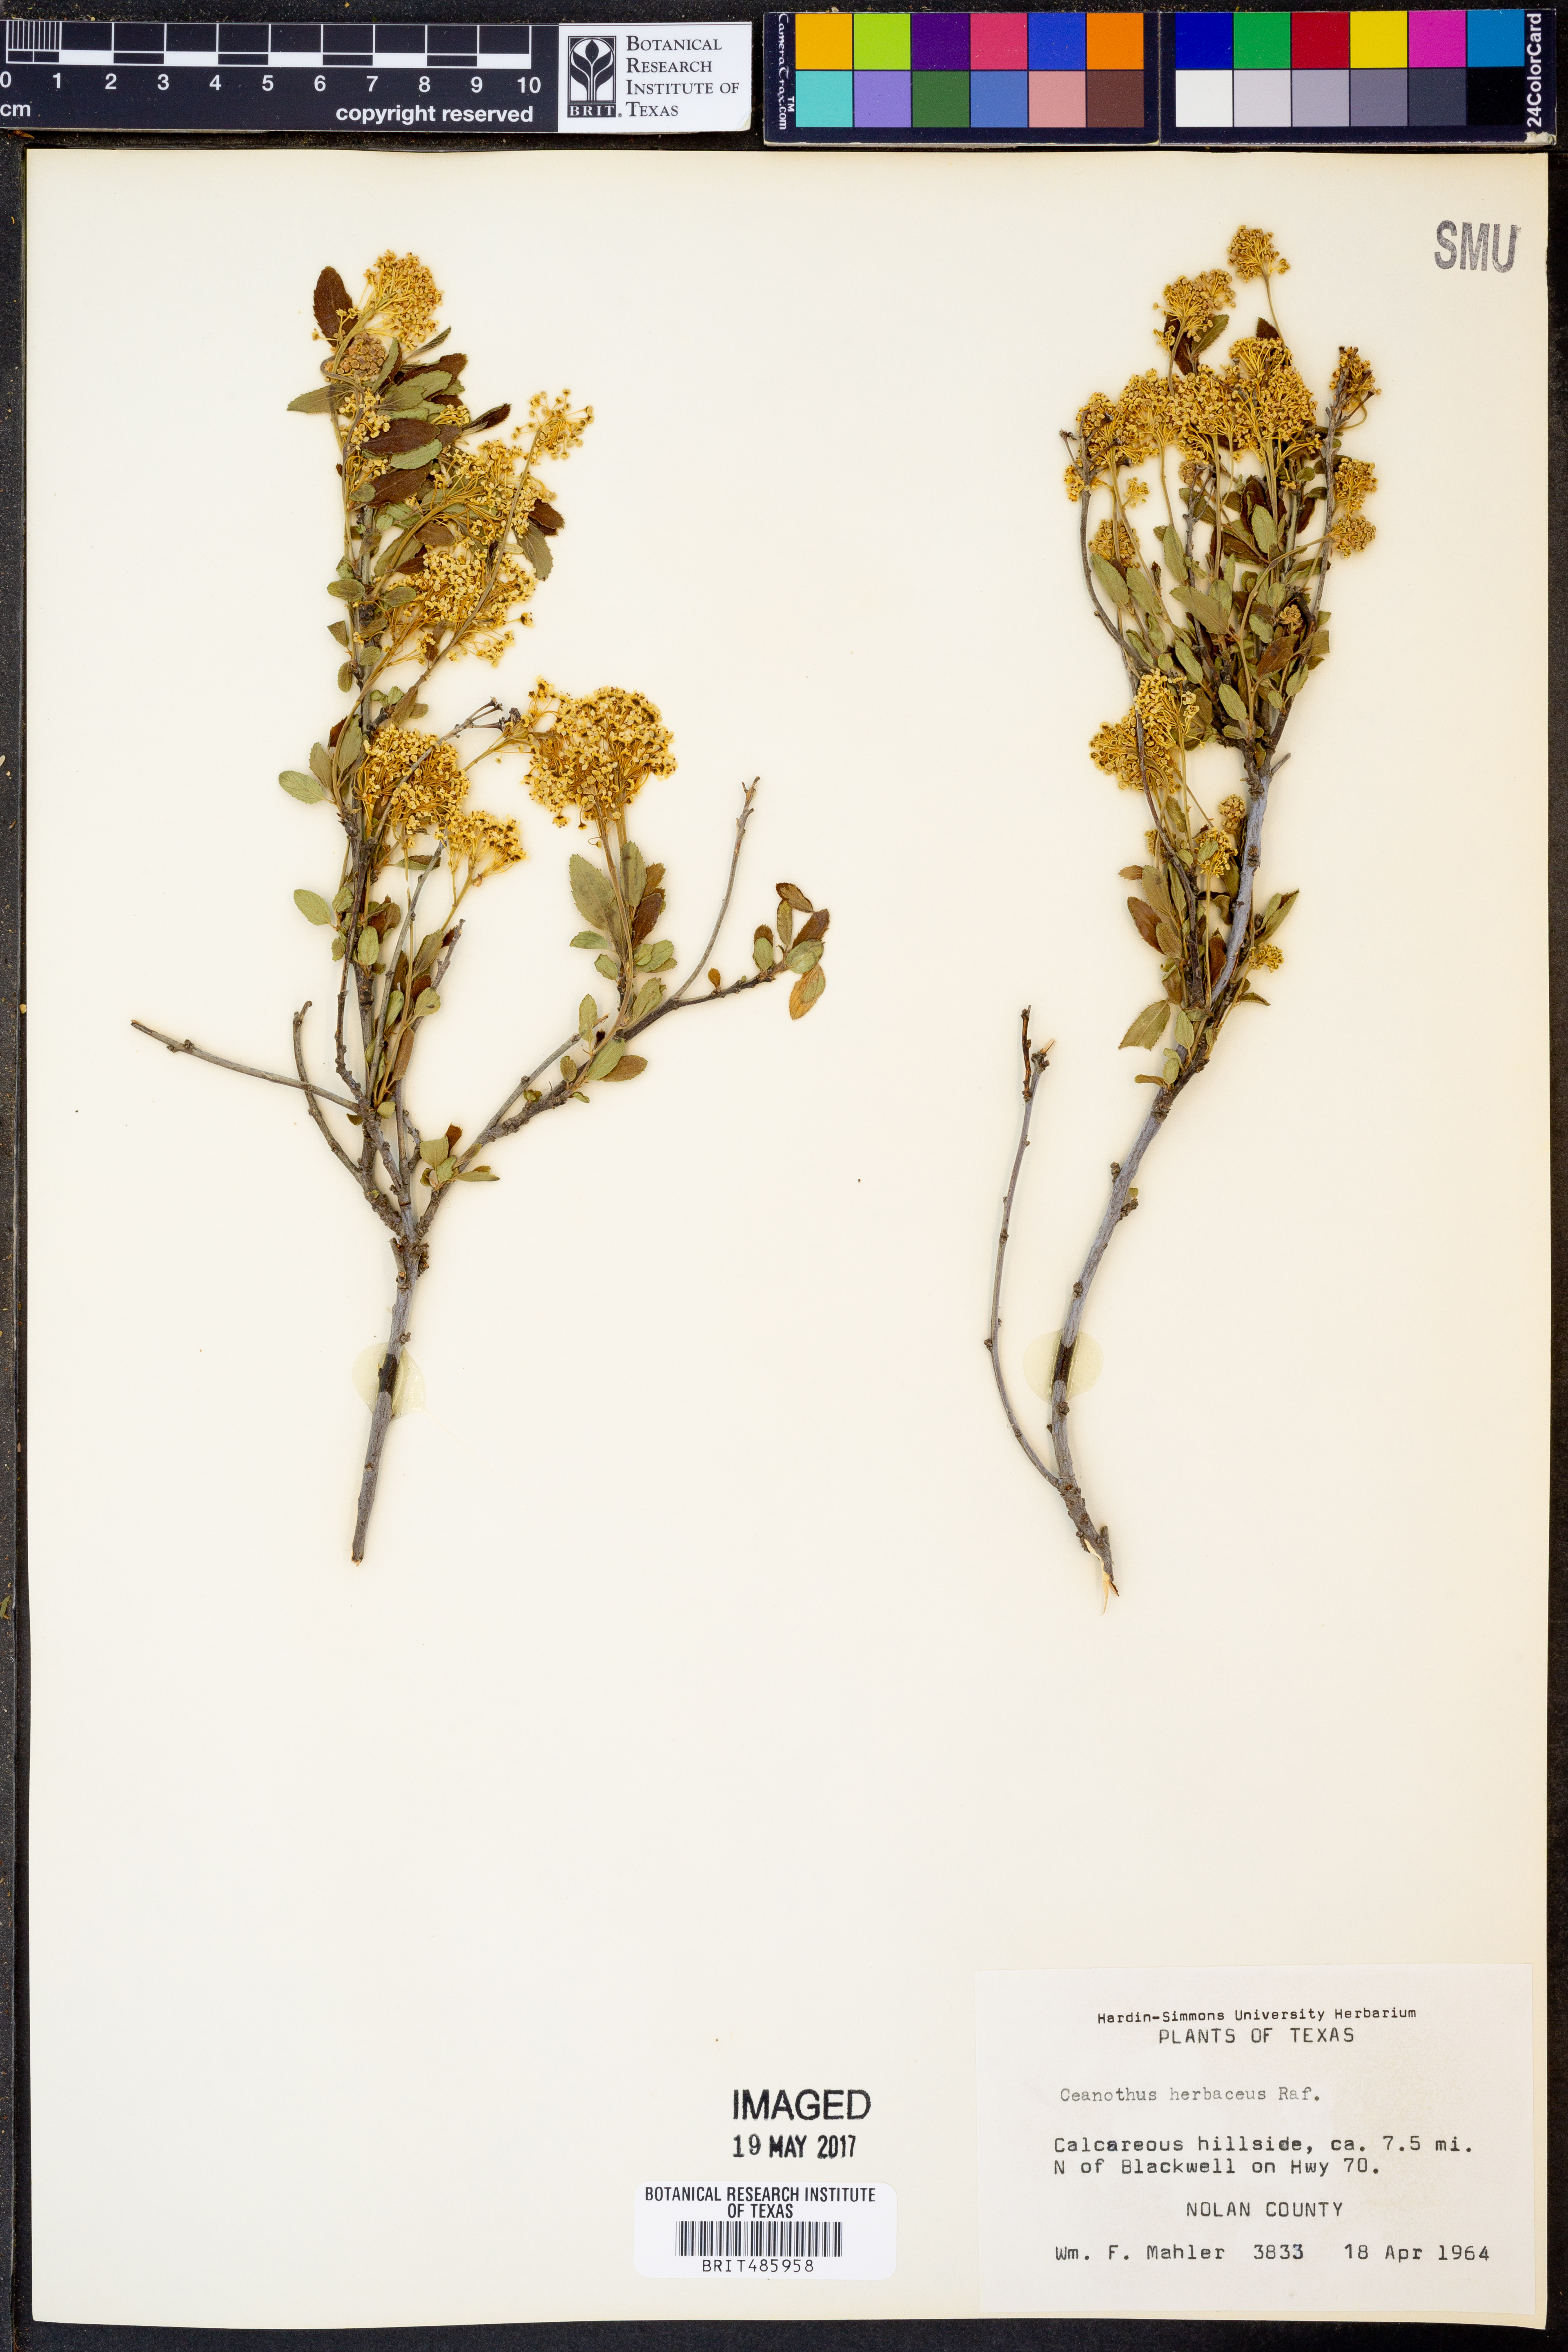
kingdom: Plantae
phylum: Tracheophyta
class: Magnoliopsida
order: Rosales
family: Rhamnaceae
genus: Ceanothus
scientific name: Ceanothus herbaceus
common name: Inland ceanothus
